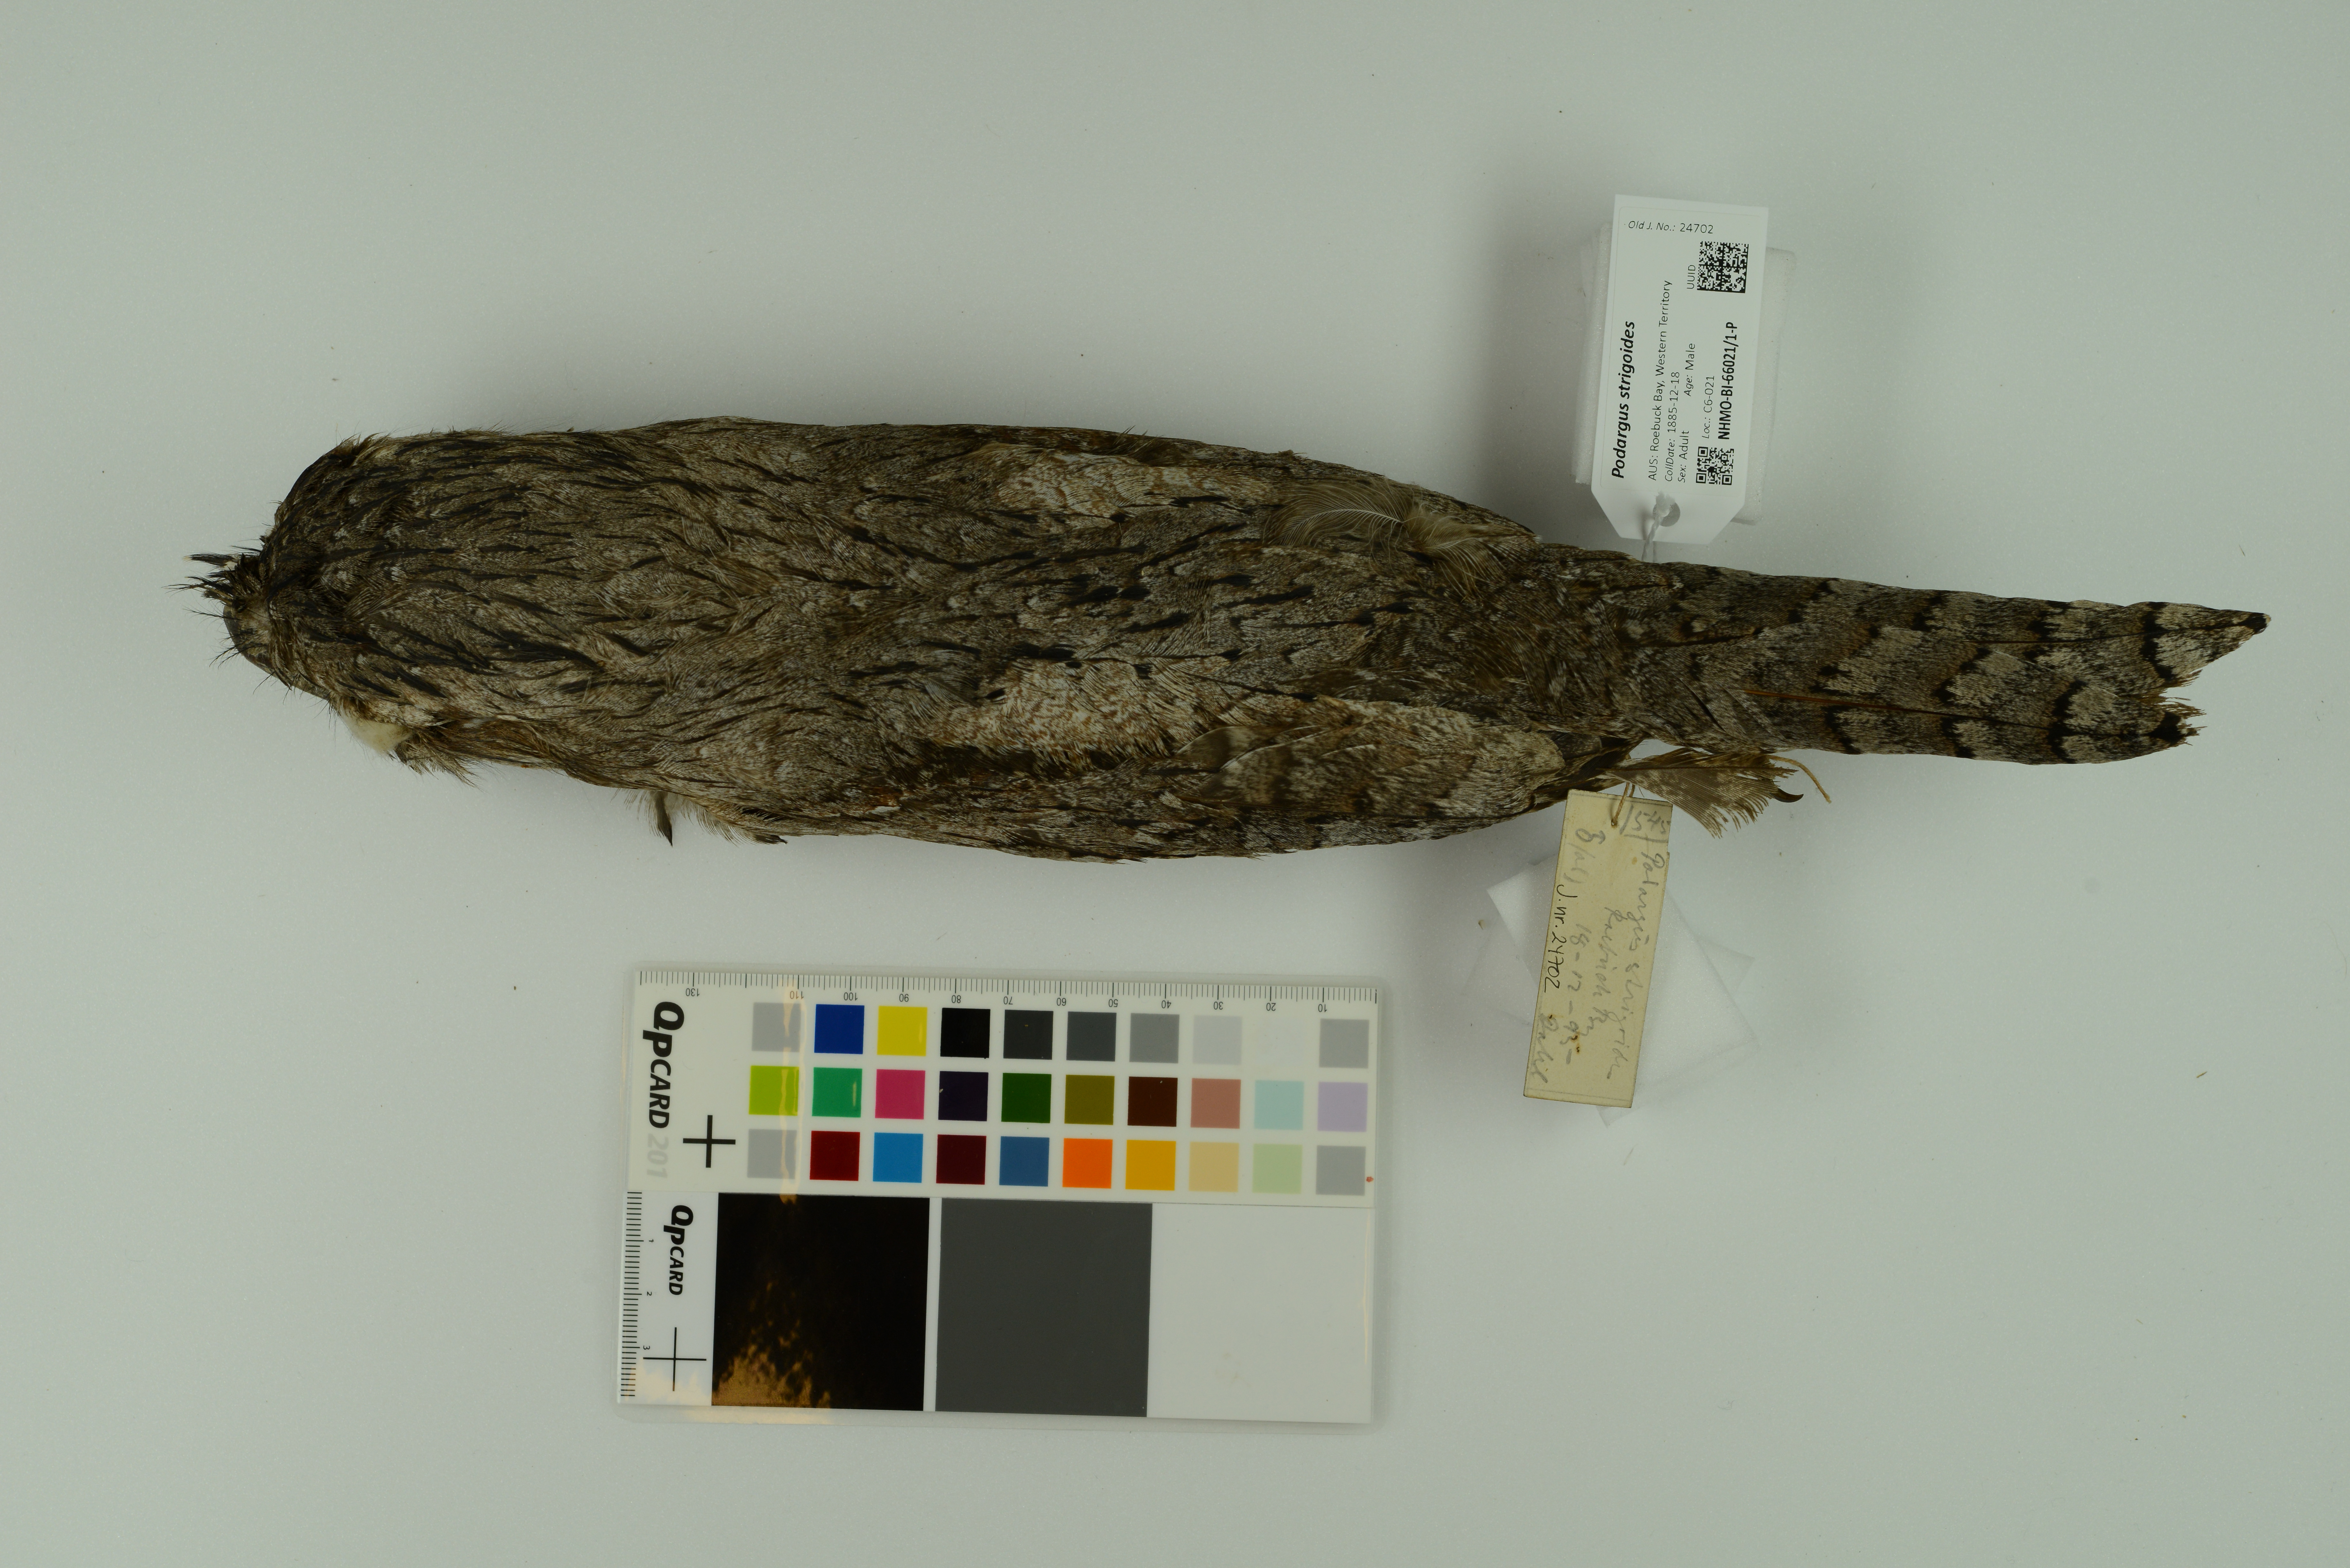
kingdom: Animalia
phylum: Chordata
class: Aves
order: Caprimulgiformes
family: Podargidae
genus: Podargus
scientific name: Podargus strigoides
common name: Tawny frogmouth
